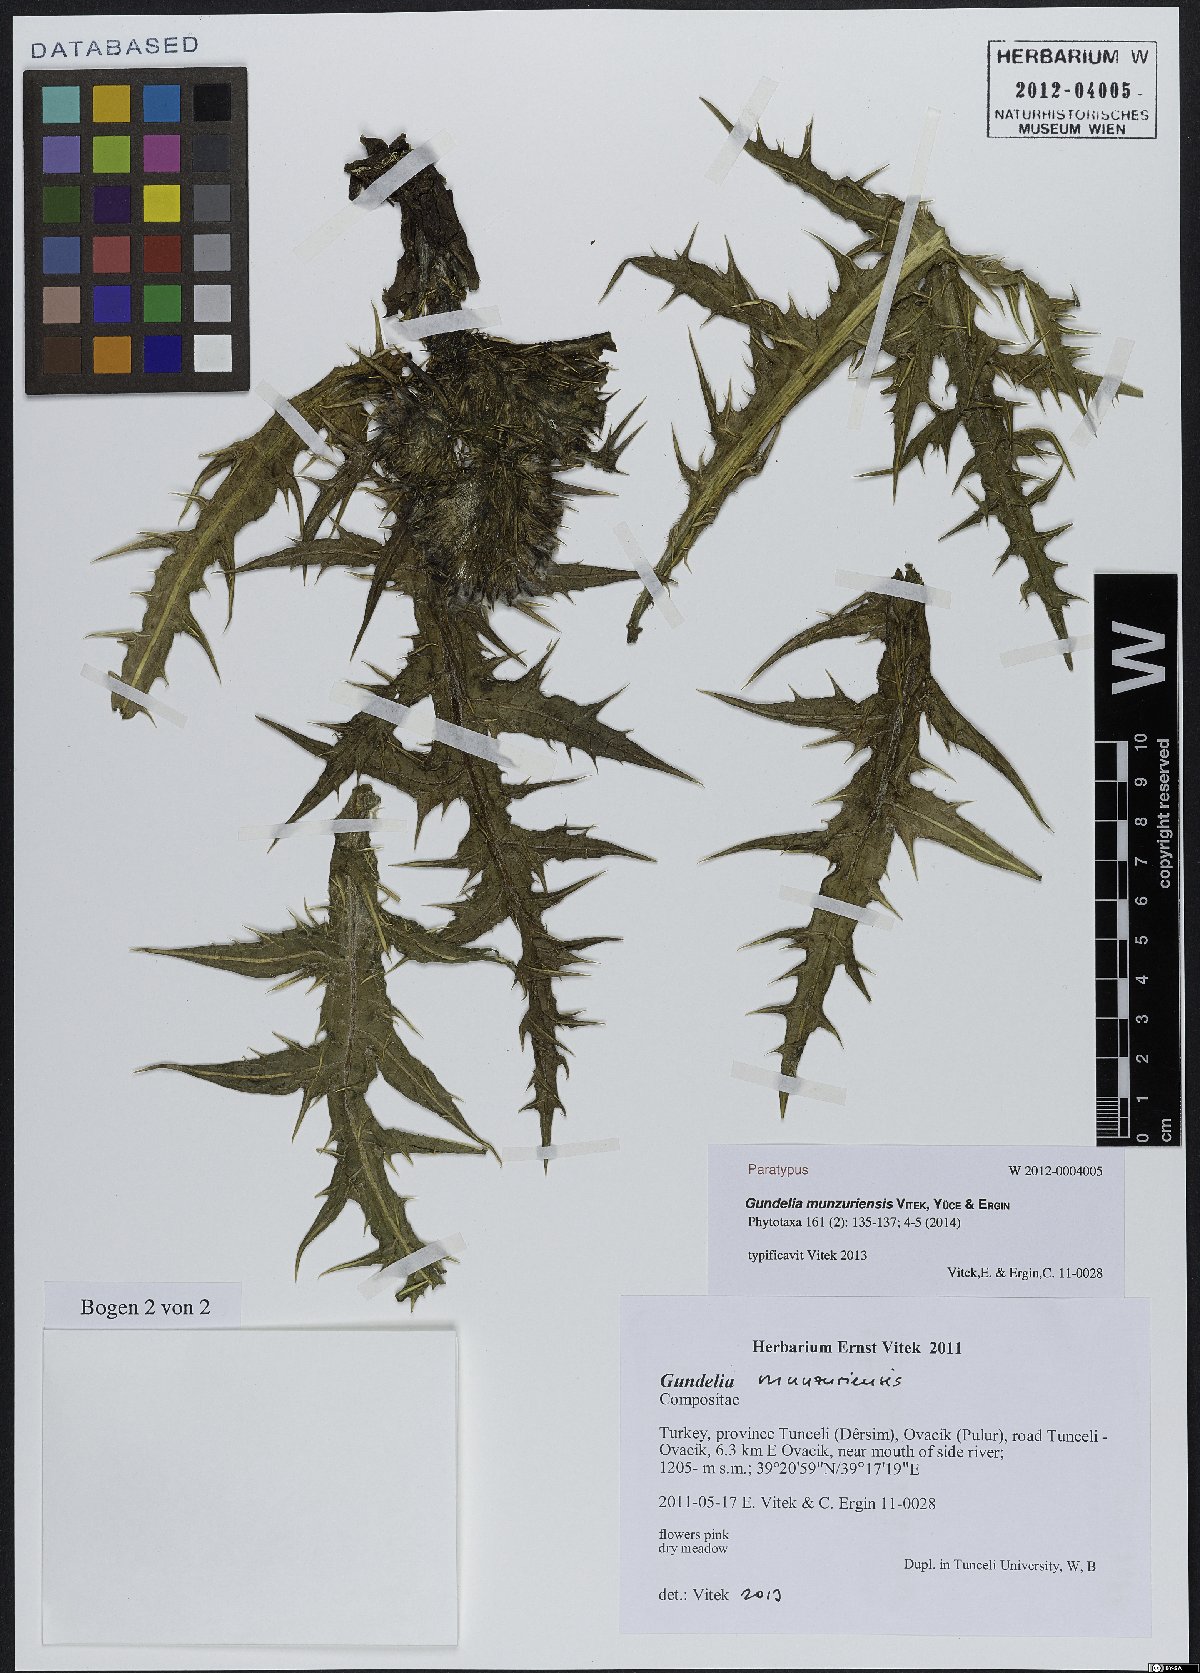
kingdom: Plantae
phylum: Tracheophyta
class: Magnoliopsida
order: Asterales
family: Asteraceae
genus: Gundelia
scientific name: Gundelia munzuriensis
